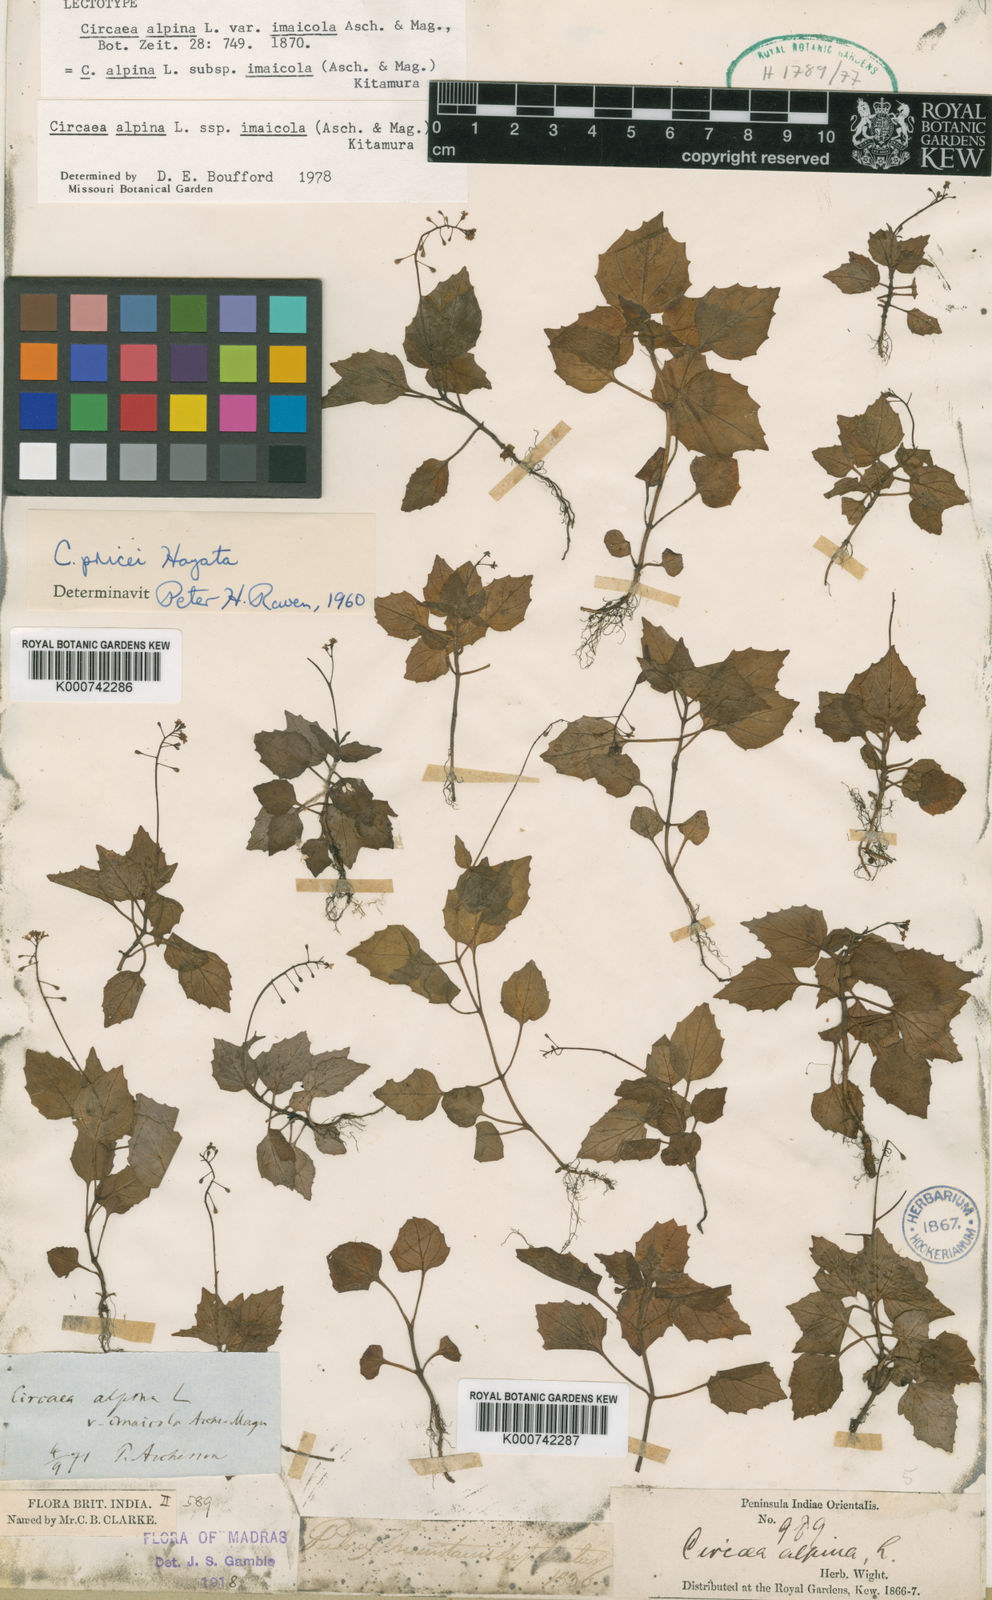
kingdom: Plantae
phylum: Tracheophyta
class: Magnoliopsida
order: Myrtales
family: Onagraceae
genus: Circaea
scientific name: Circaea alpina
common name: Alpine enchanter's-nightshade
